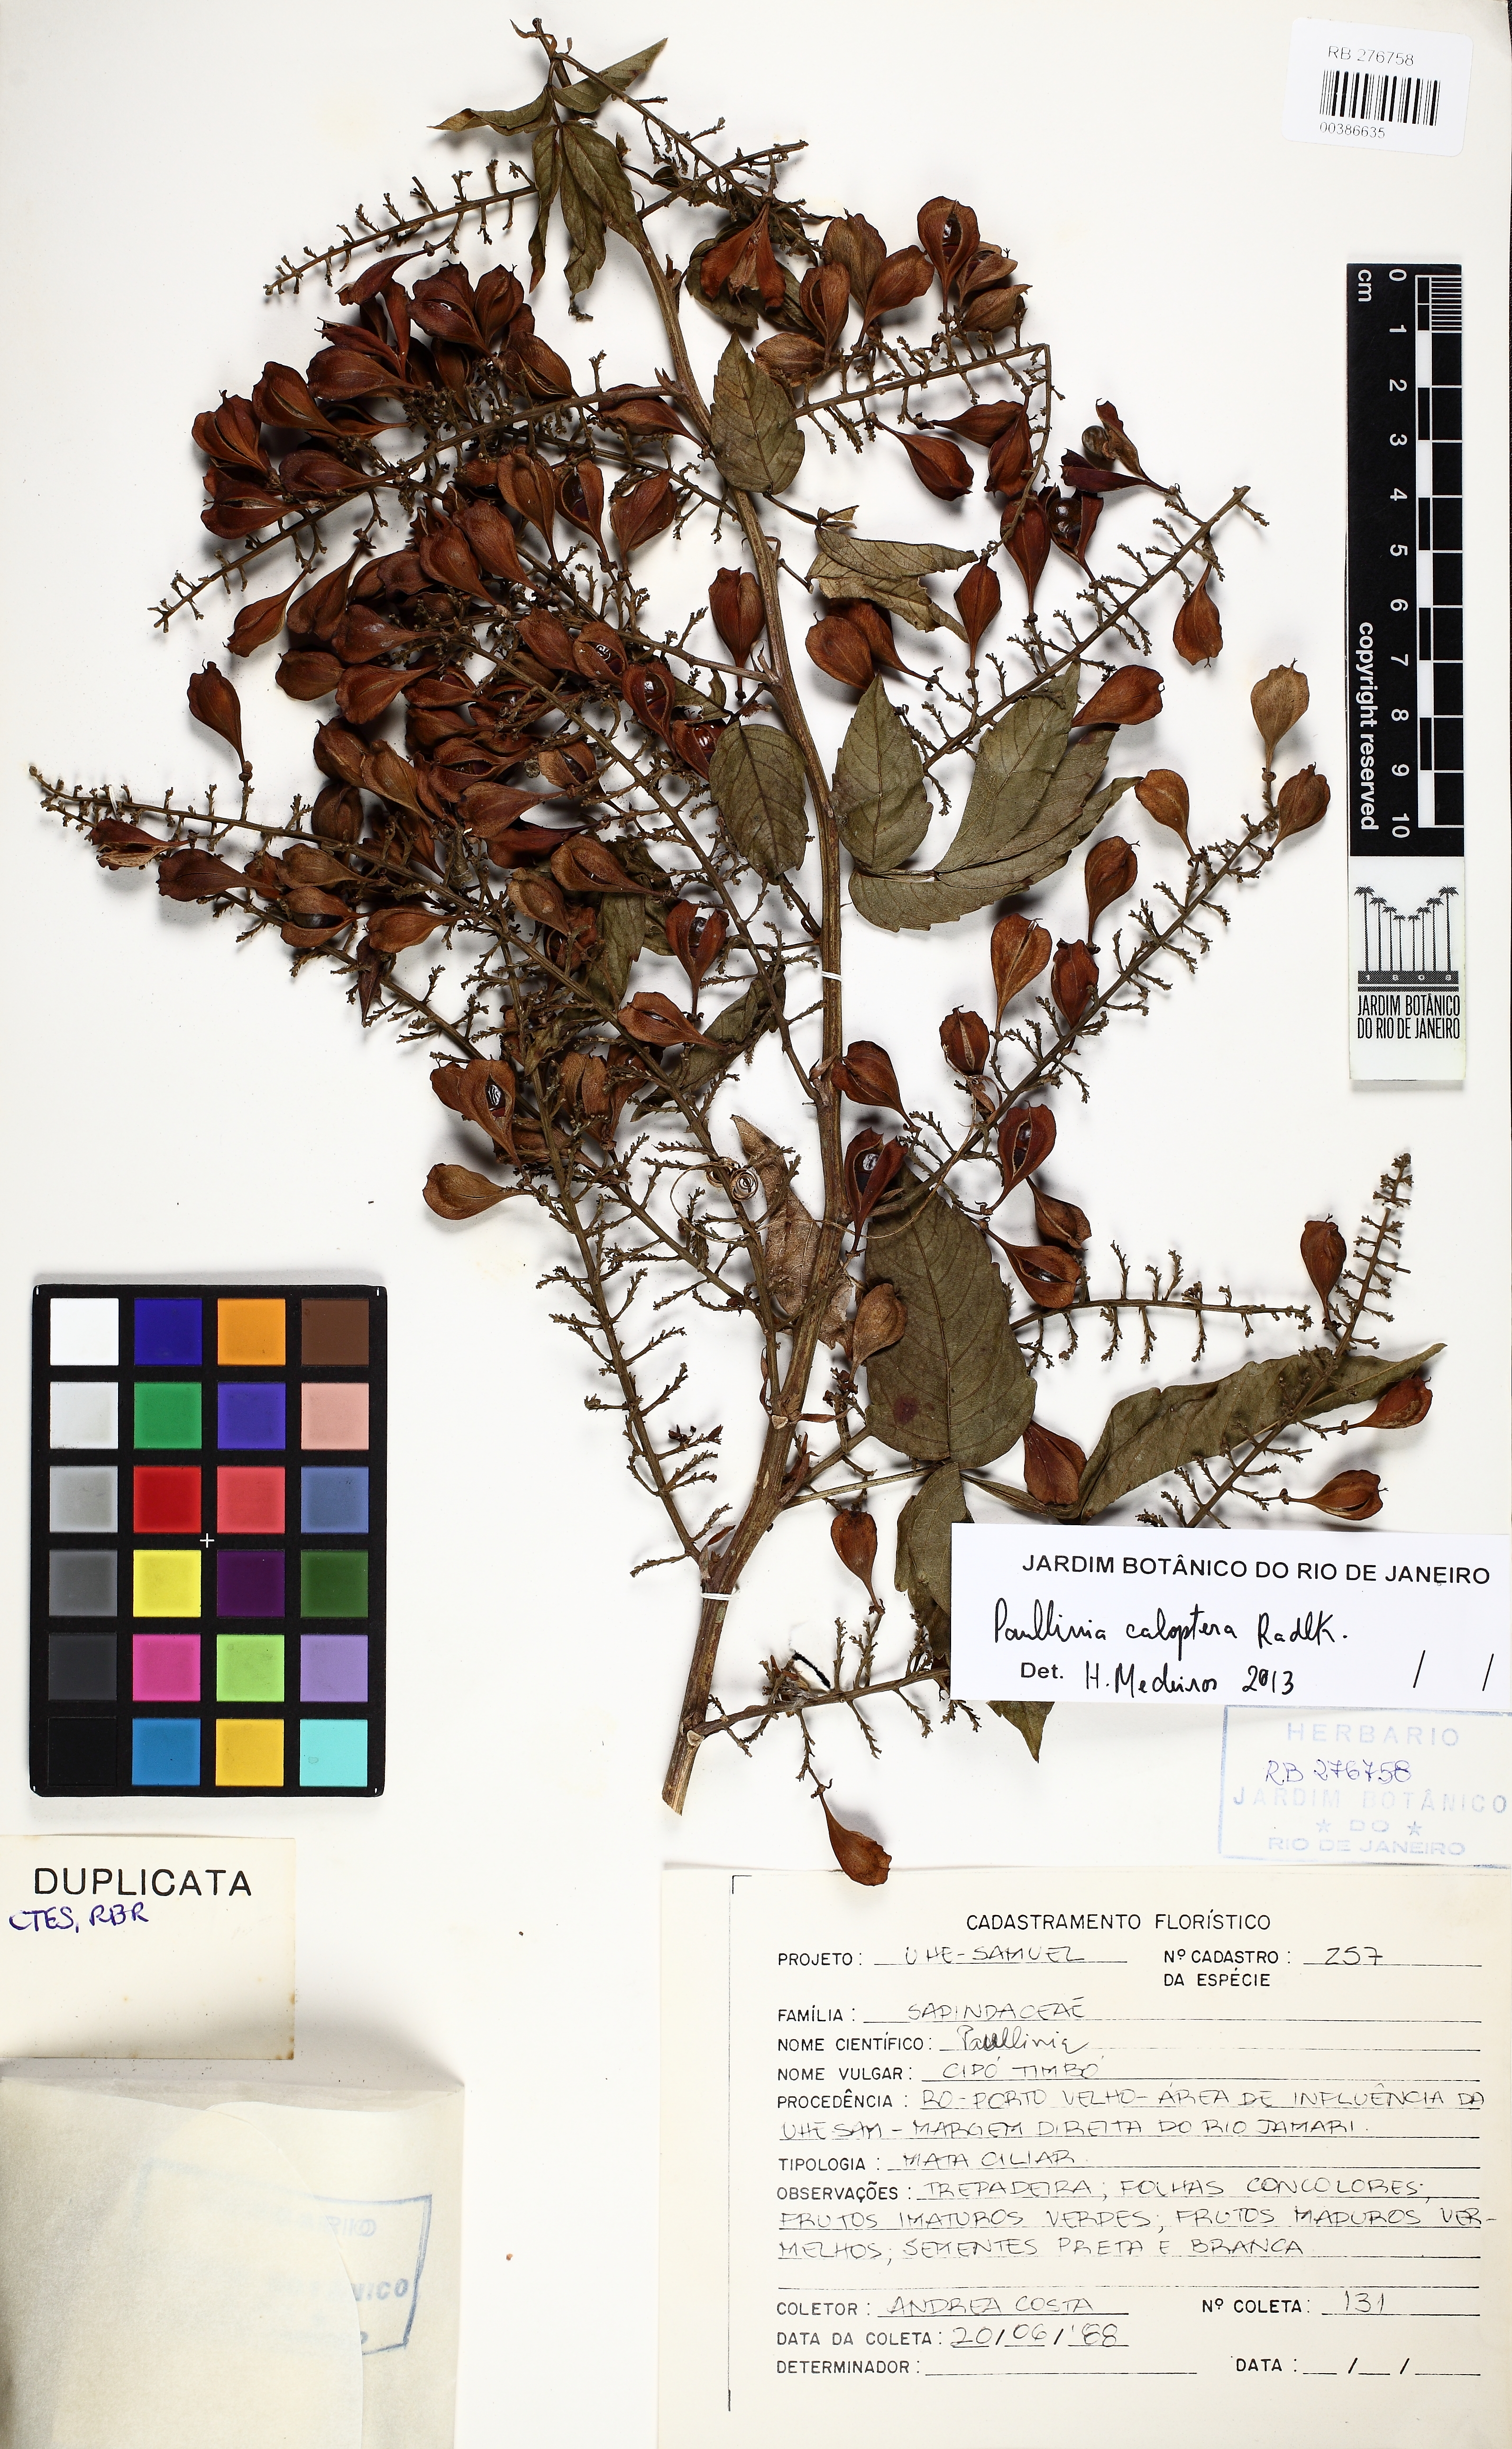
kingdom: Plantae
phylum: Tracheophyta
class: Magnoliopsida
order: Sapindales
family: Sapindaceae
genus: Paullinia
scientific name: Paullinia caloptera
